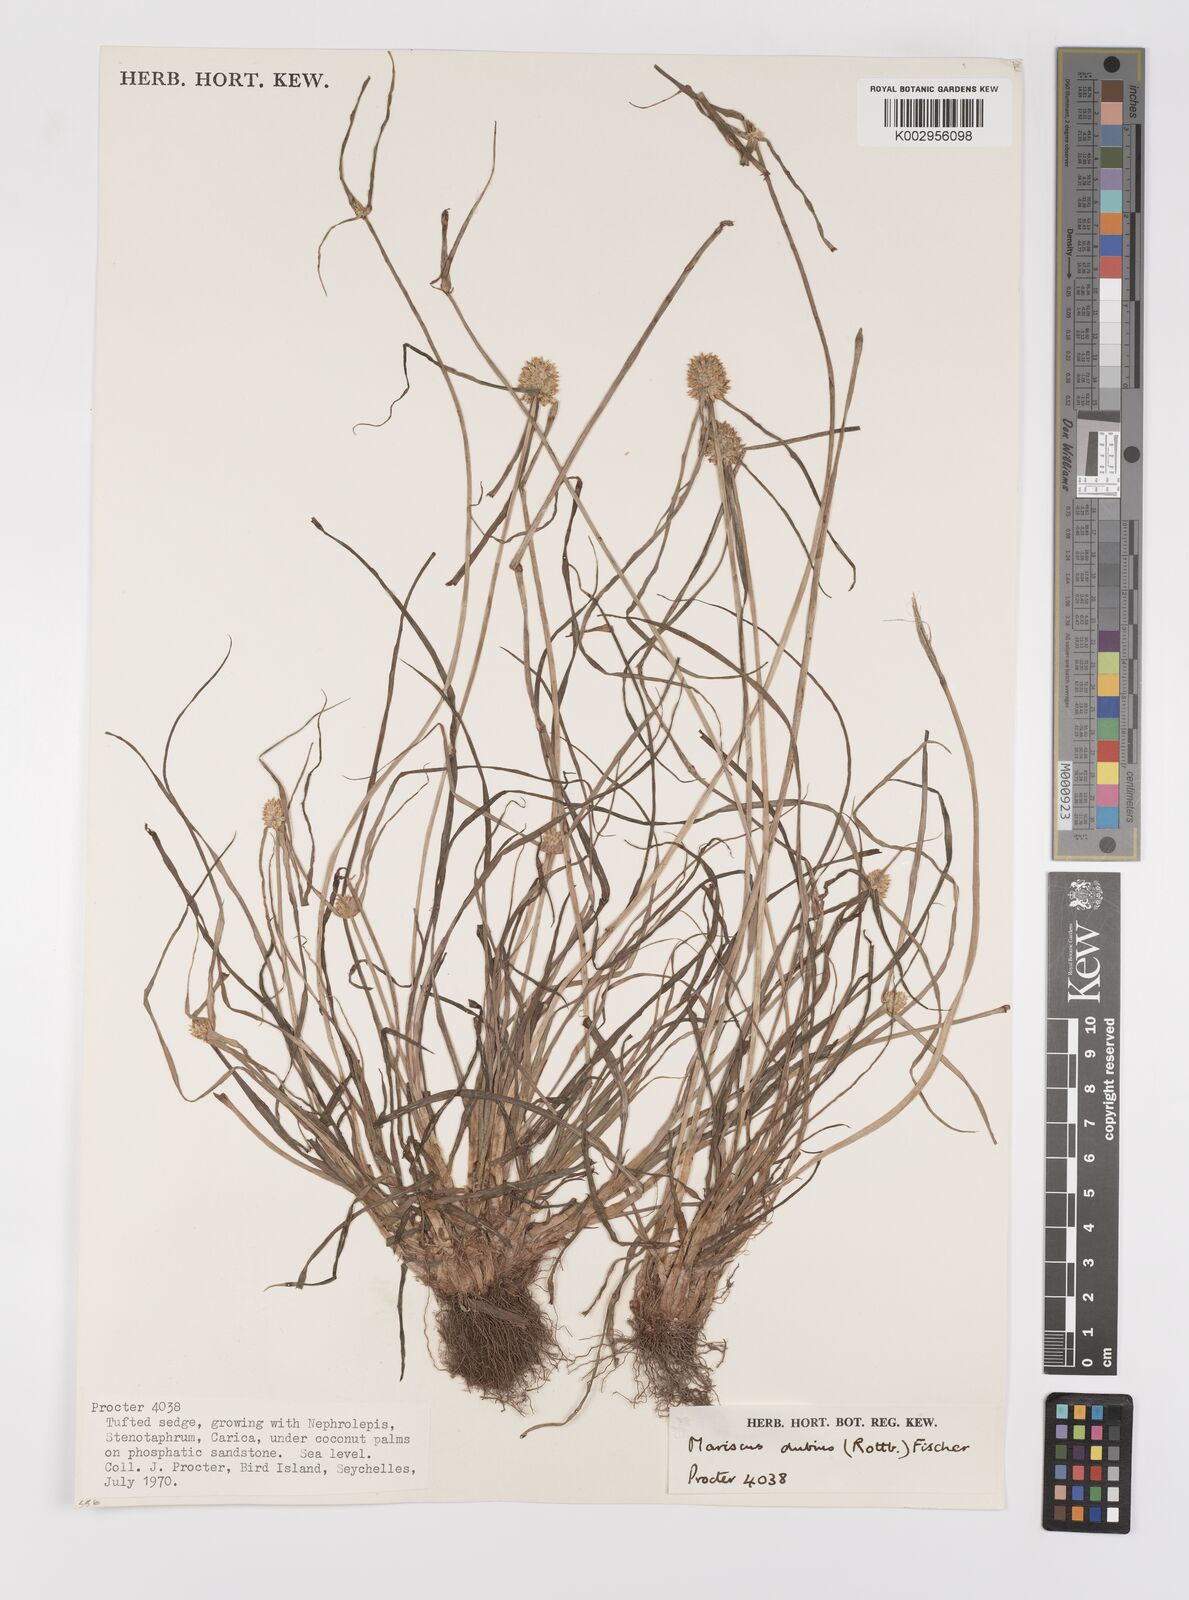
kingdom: Plantae
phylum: Tracheophyta
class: Liliopsida
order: Poales
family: Cyperaceae
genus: Cyperus
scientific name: Cyperus dubius
